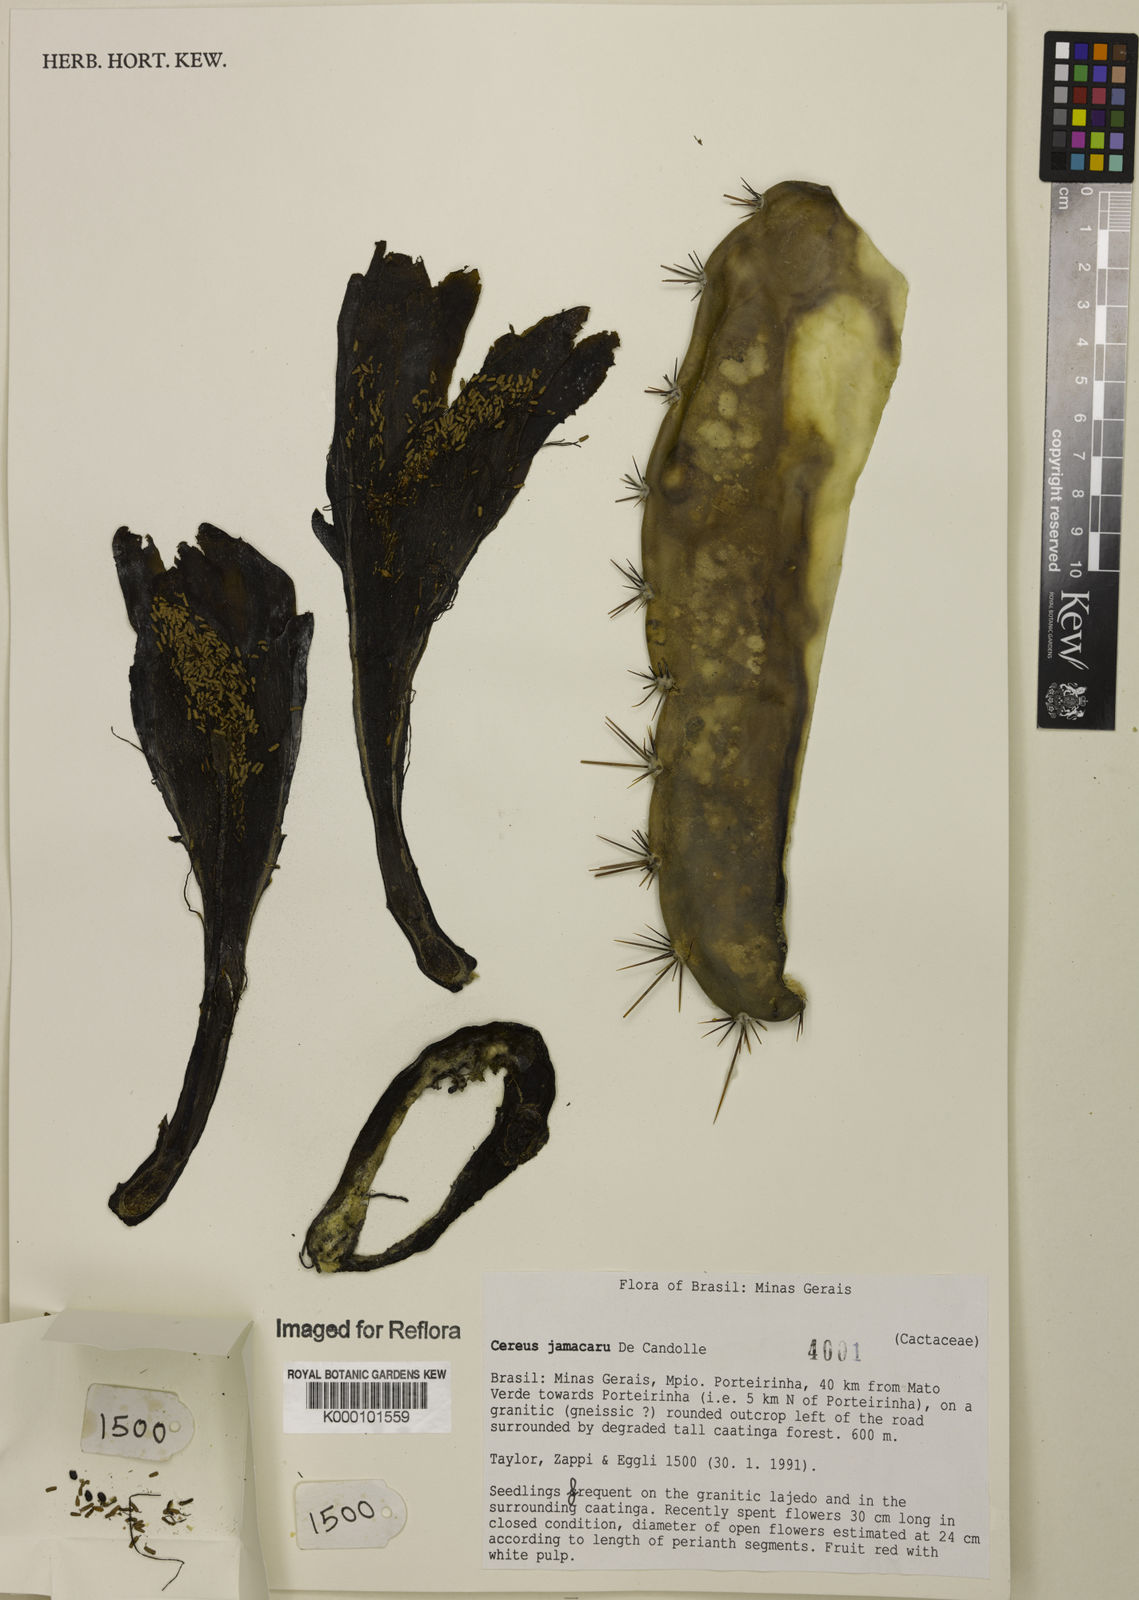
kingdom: Plantae
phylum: Tracheophyta
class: Magnoliopsida
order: Caryophyllales
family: Cactaceae
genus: Cereus
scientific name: Cereus jamacaru
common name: Queen-of-the-night
